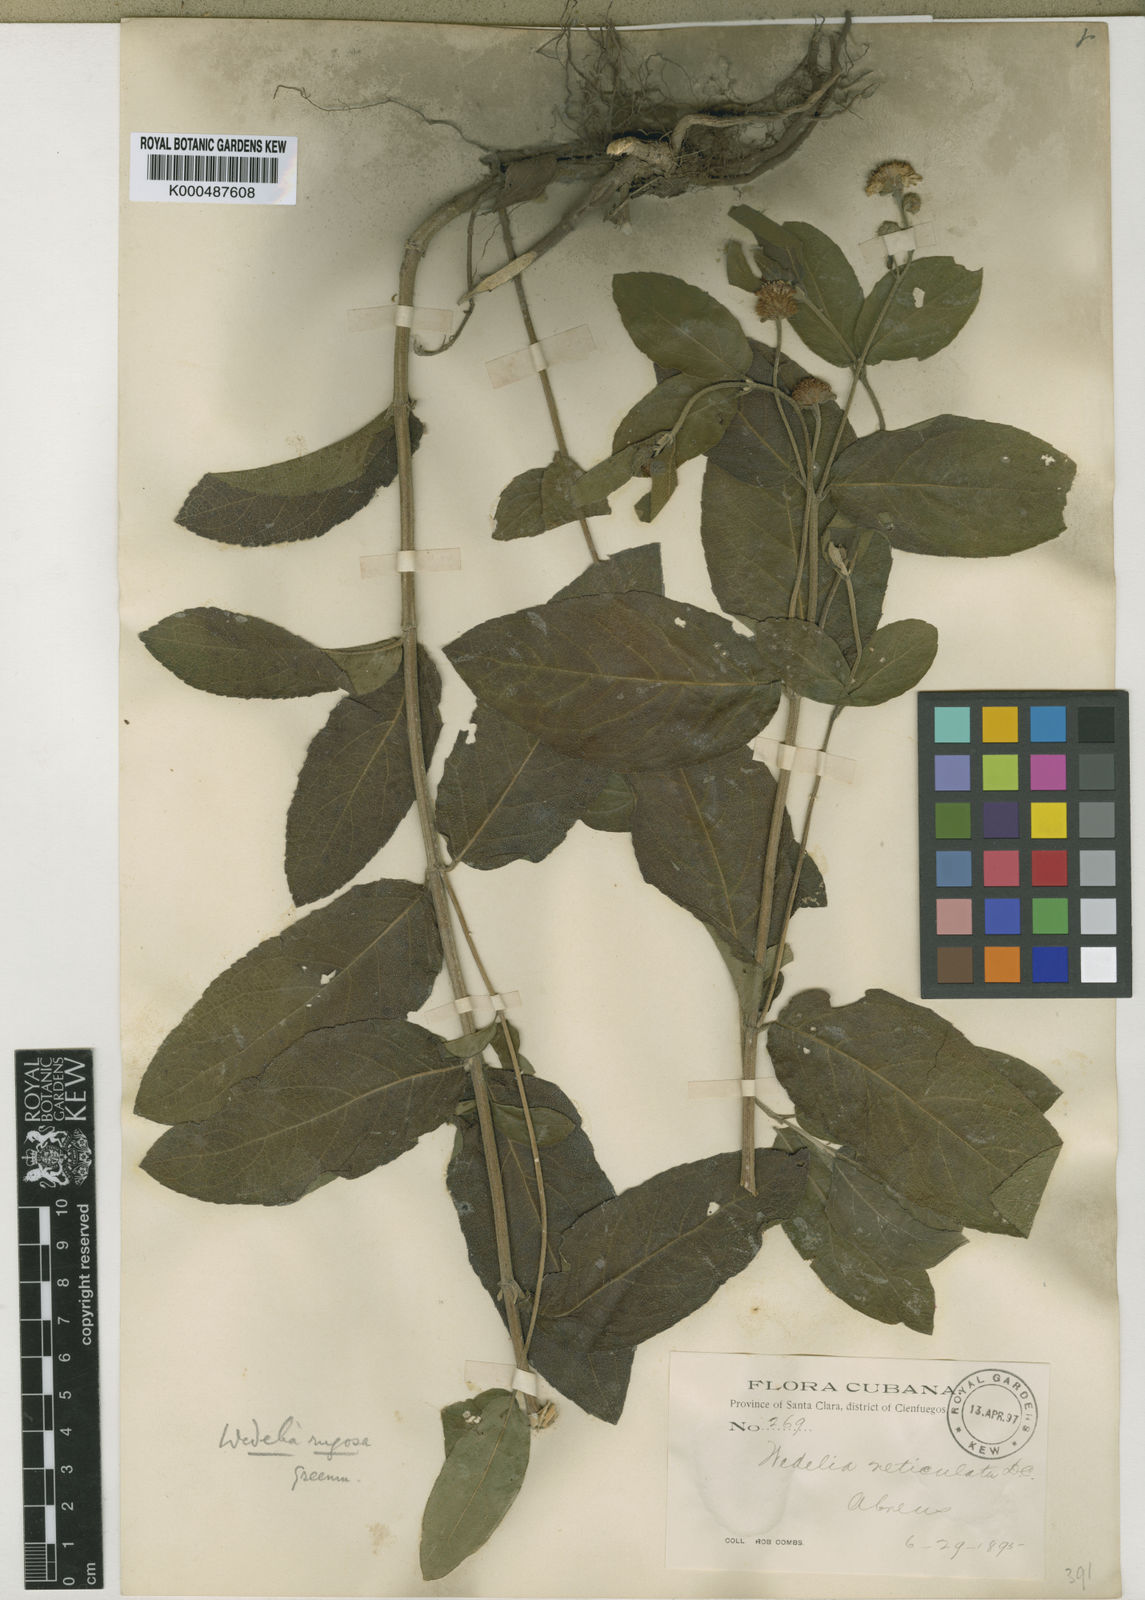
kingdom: Plantae
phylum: Tracheophyta
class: Magnoliopsida
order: Asterales
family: Asteraceae
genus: Wedelia
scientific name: Wedelia rugosa
